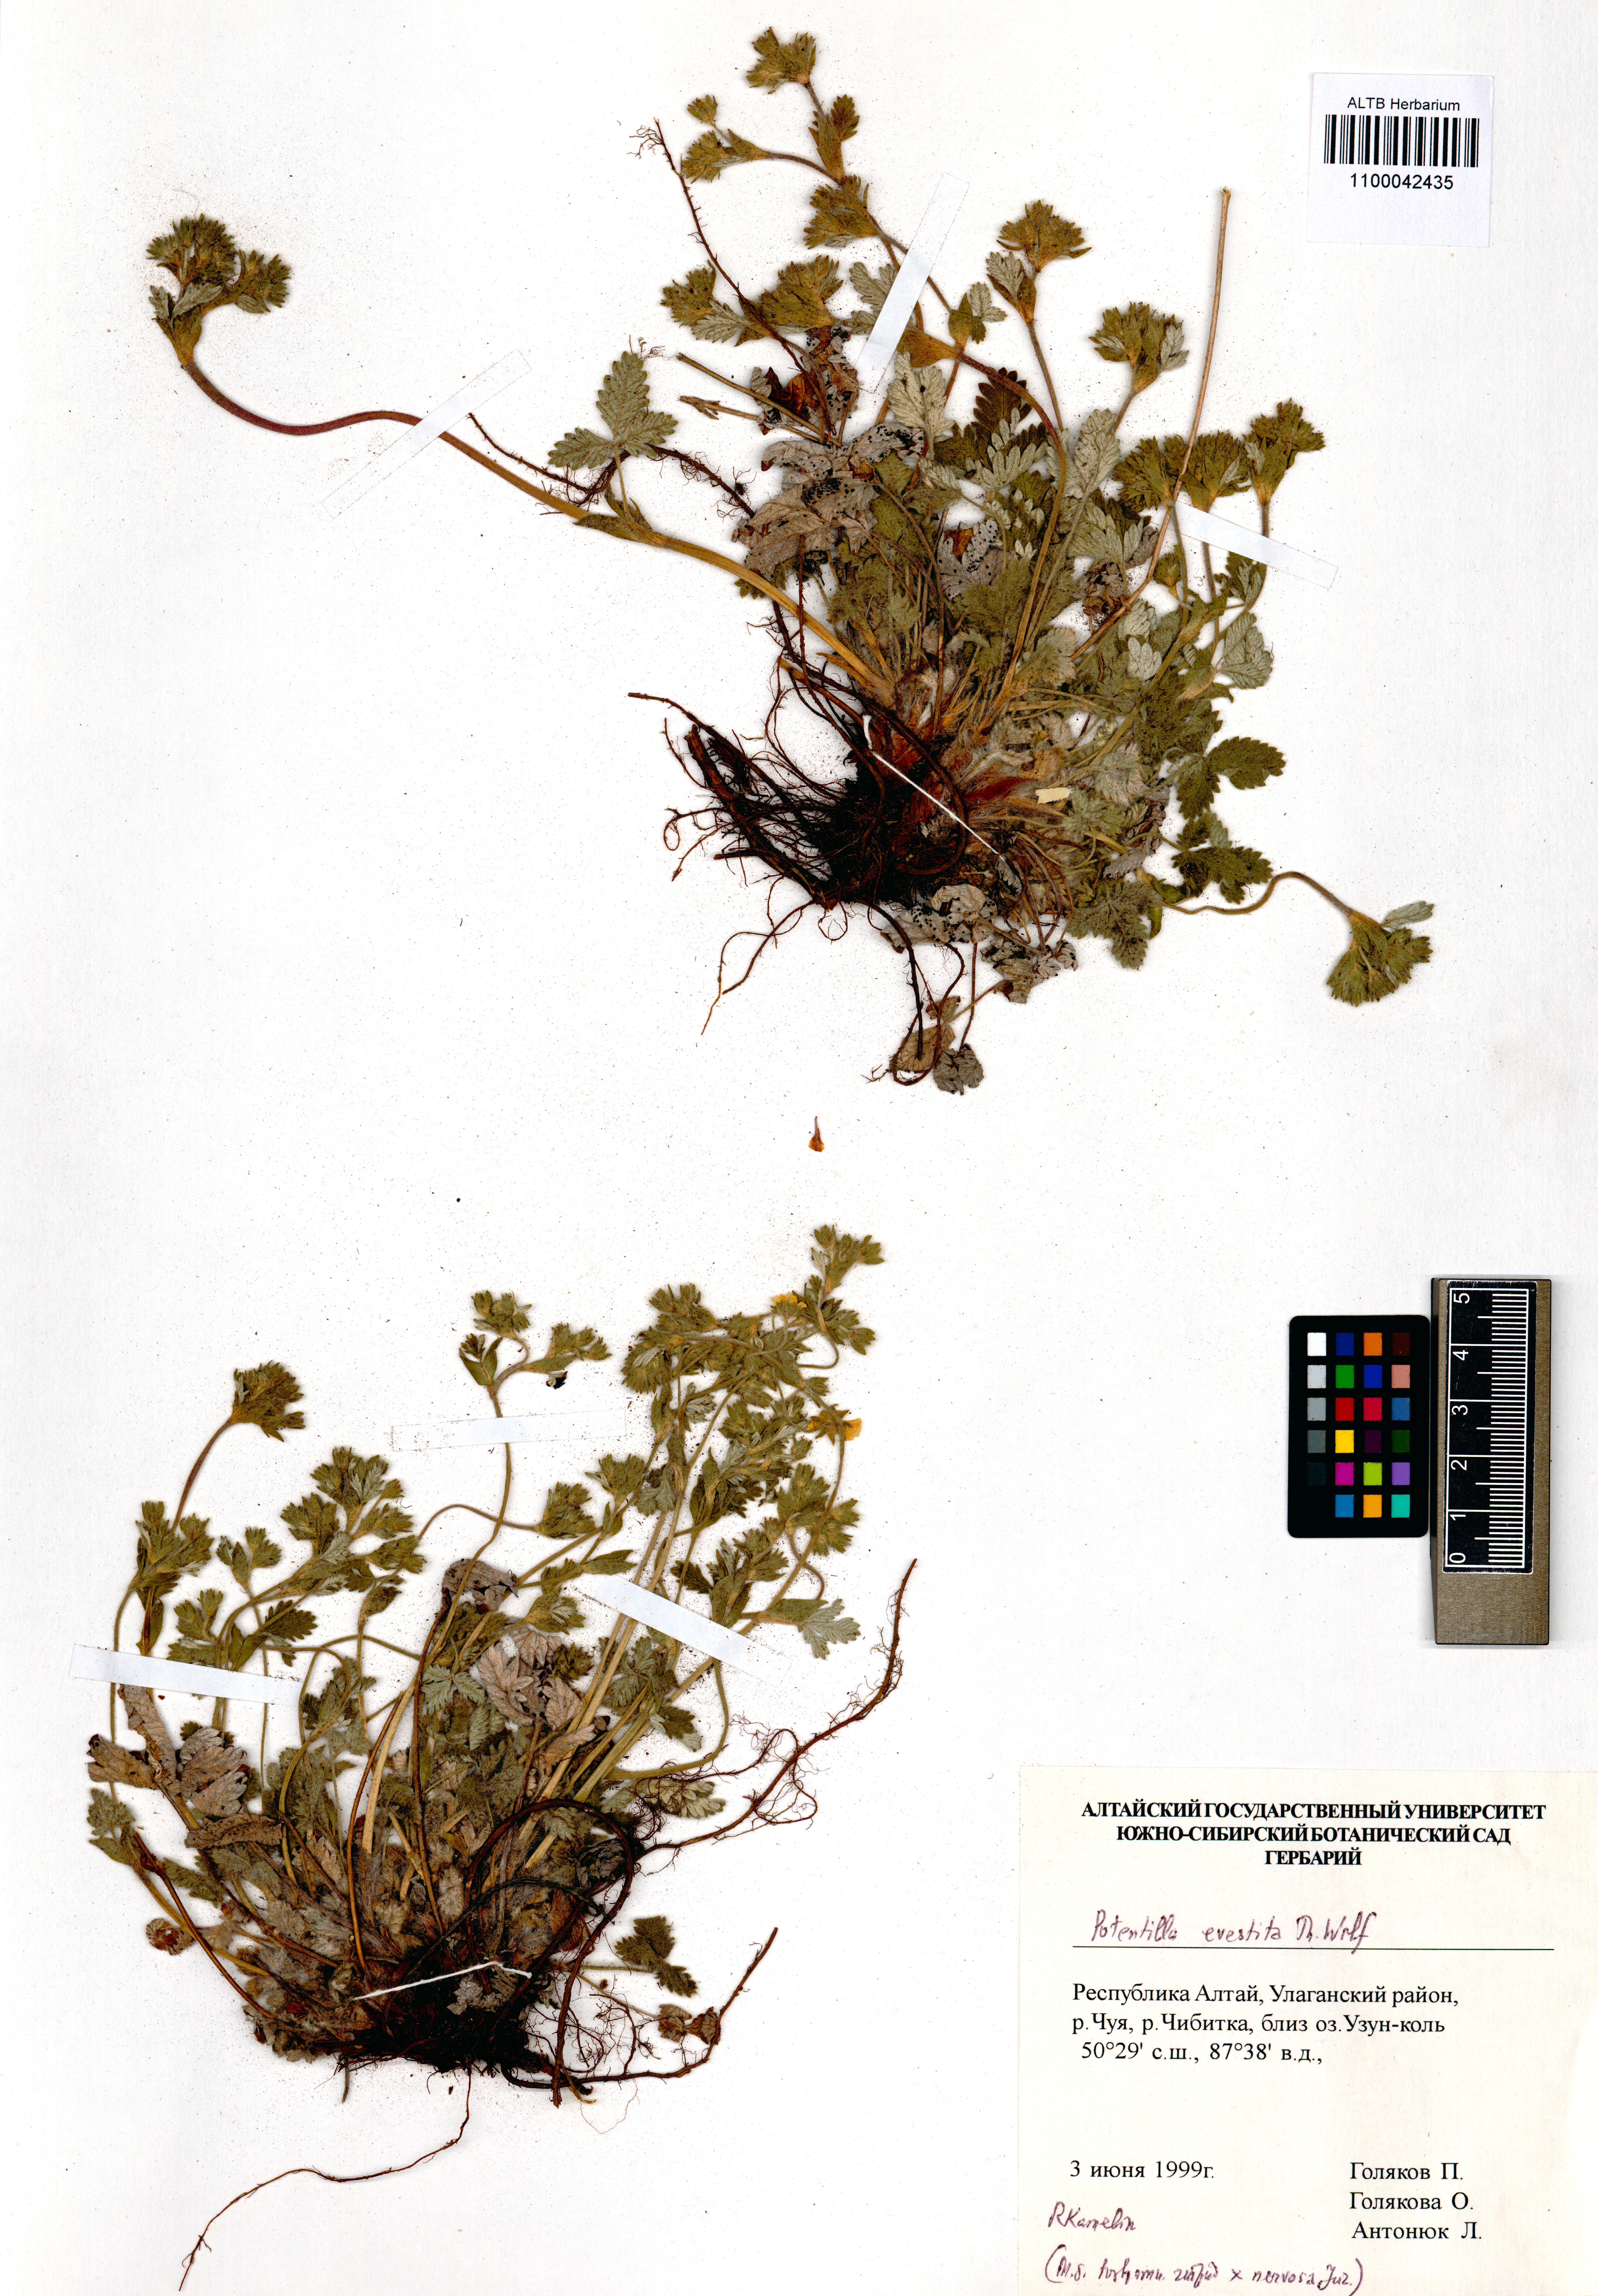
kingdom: Plantae
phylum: Tracheophyta
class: Magnoliopsida
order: Rosales
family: Rosaceae
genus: Potentilla
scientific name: Potentilla evestita
